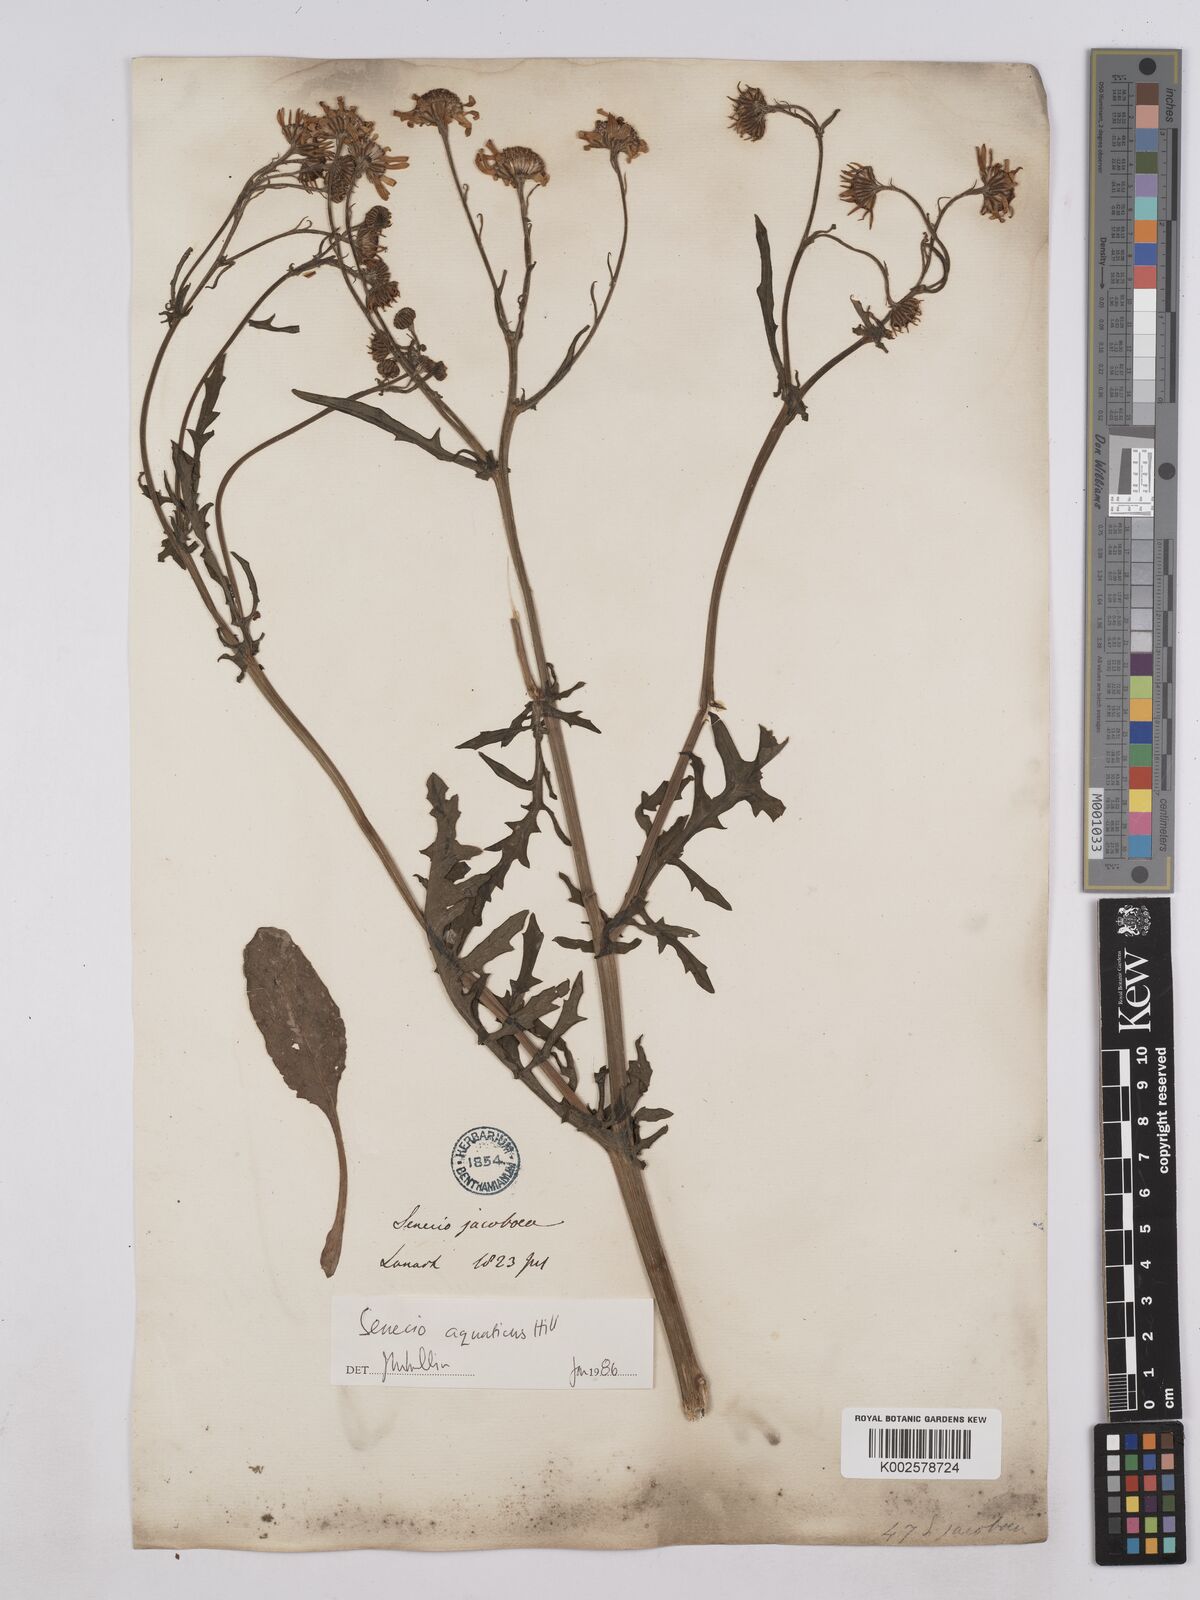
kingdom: Plantae
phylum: Tracheophyta
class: Magnoliopsida
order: Asterales
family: Asteraceae
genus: Jacobaea
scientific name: Jacobaea aquatica
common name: Water ragwort
